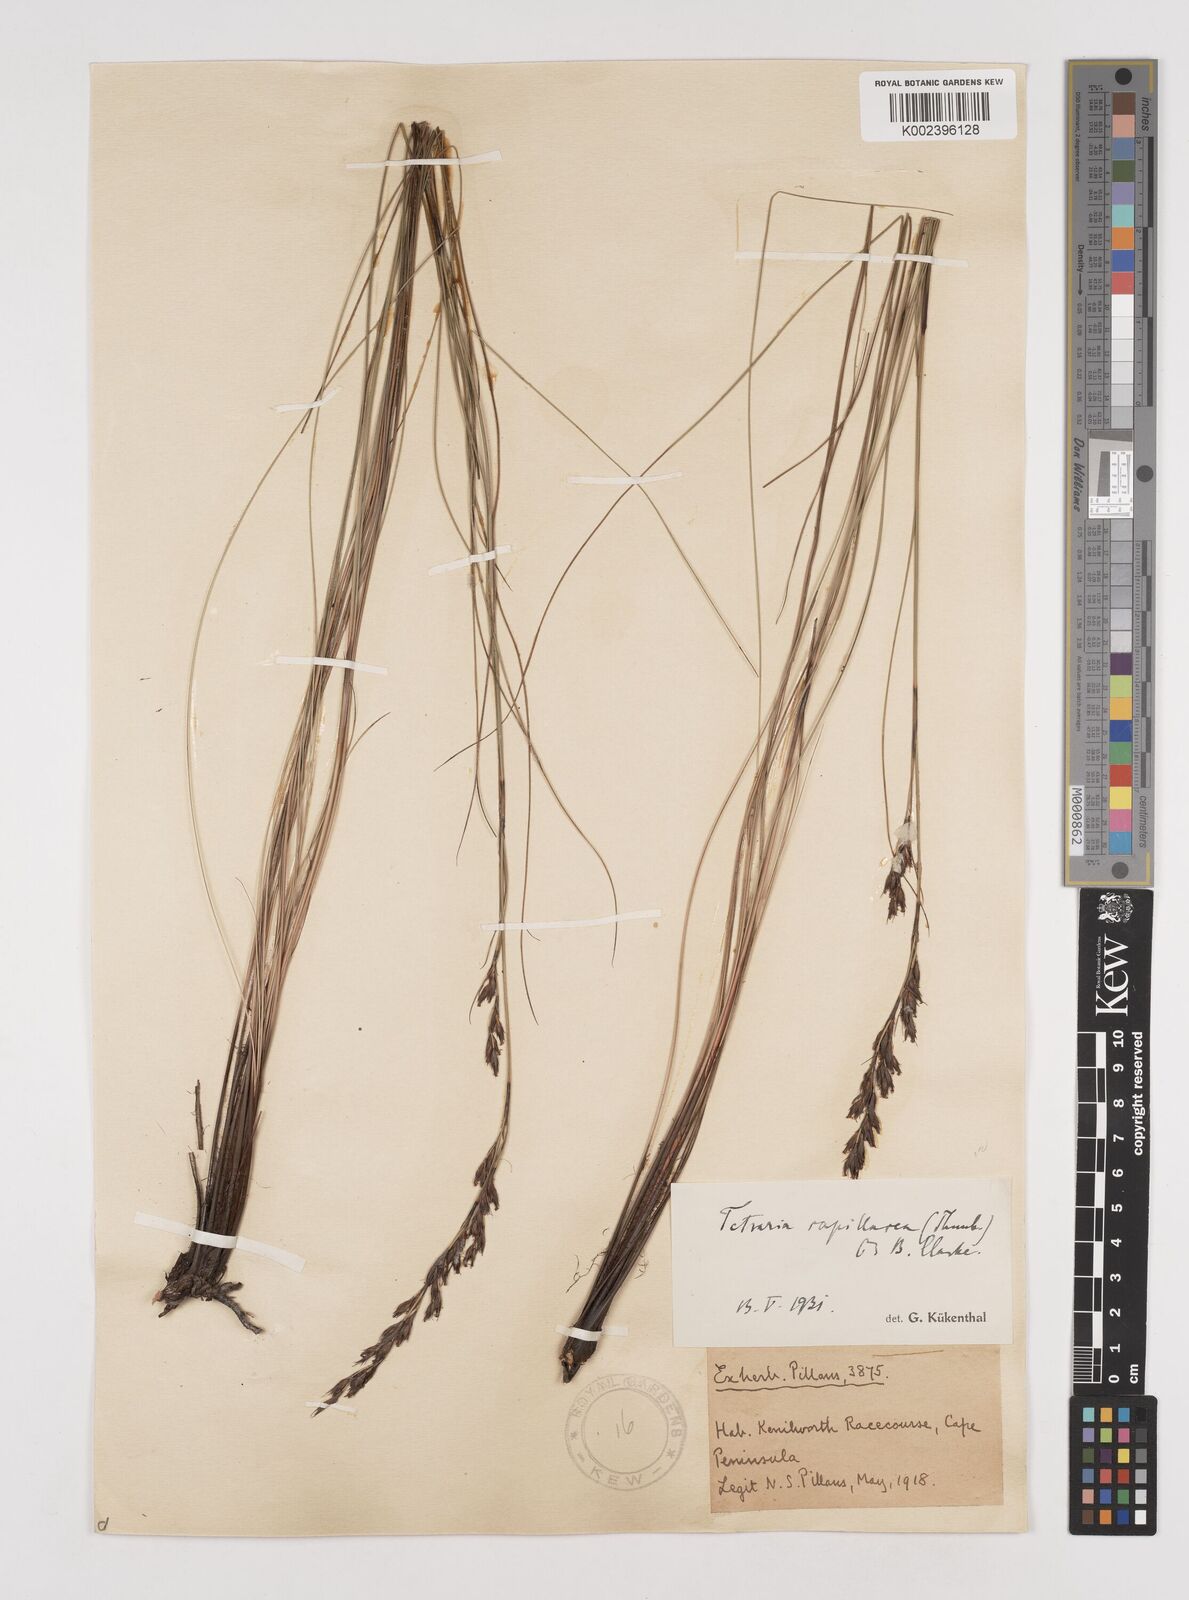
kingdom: Plantae
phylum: Tracheophyta
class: Liliopsida
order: Poales
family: Cyperaceae
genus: Tetraria
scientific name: Tetraria capillacea
